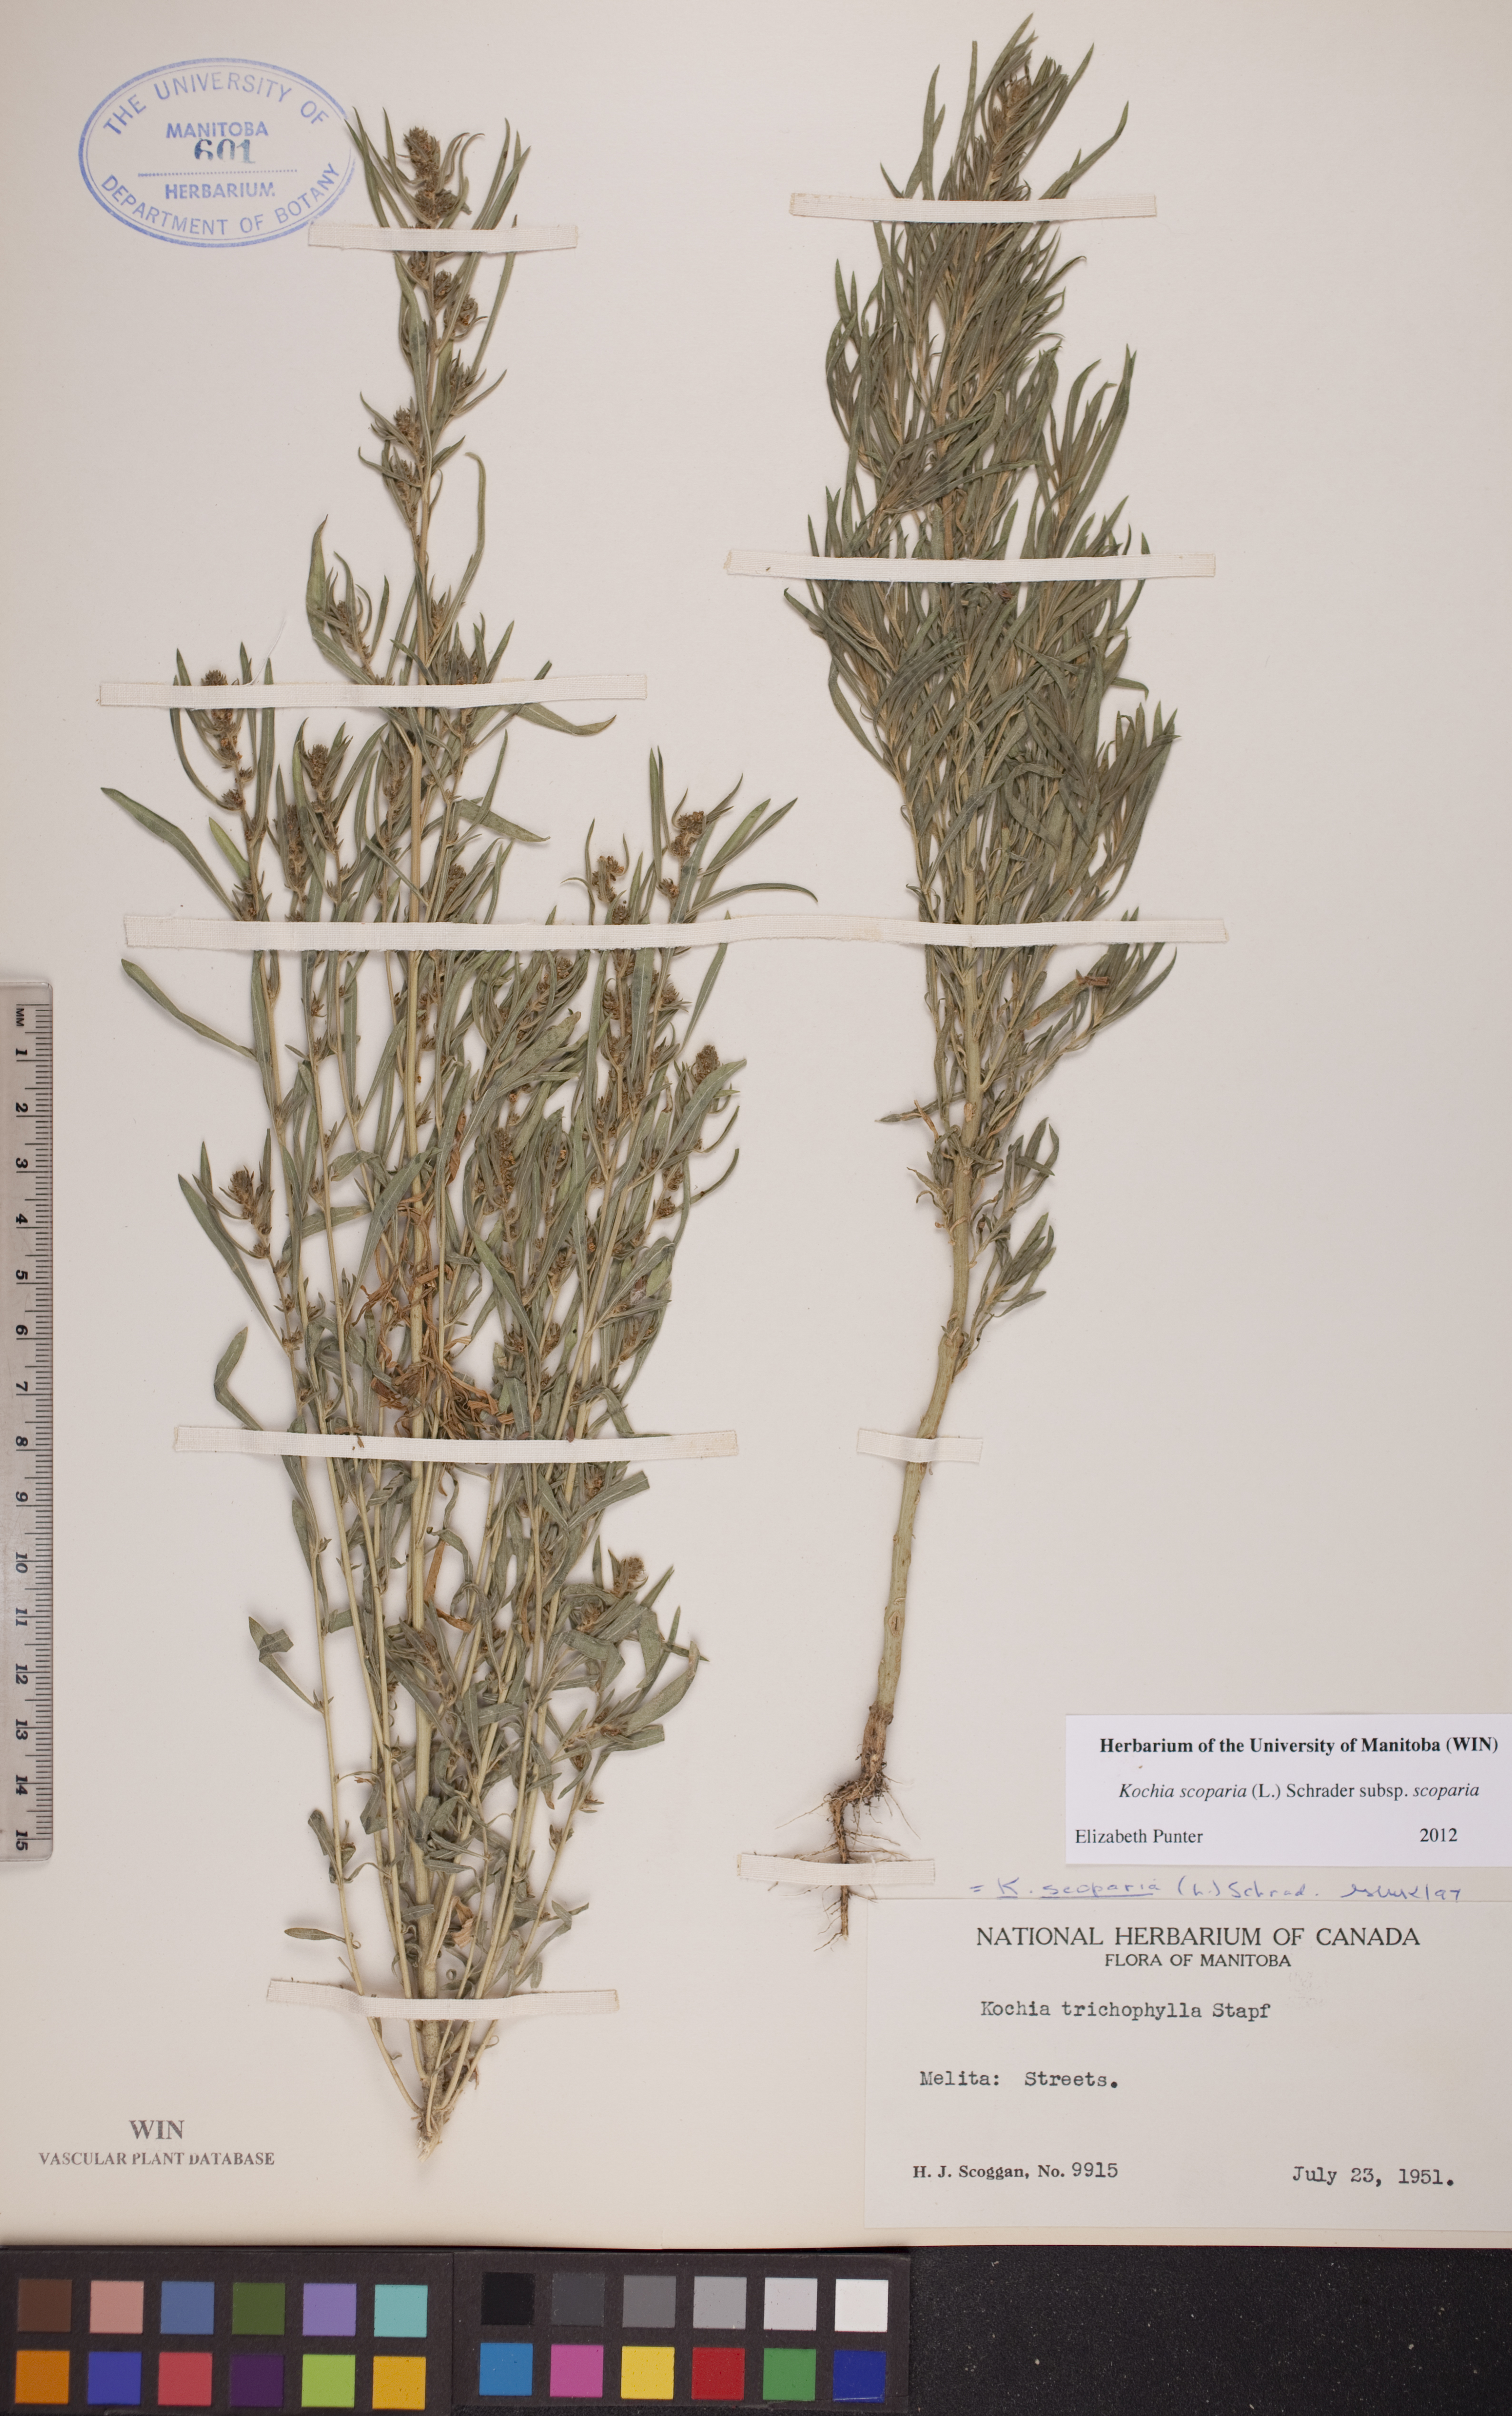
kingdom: Plantae
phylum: Tracheophyta
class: Magnoliopsida
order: Caryophyllales
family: Amaranthaceae
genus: Bassia
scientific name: Bassia scoparia
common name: Belvedere
